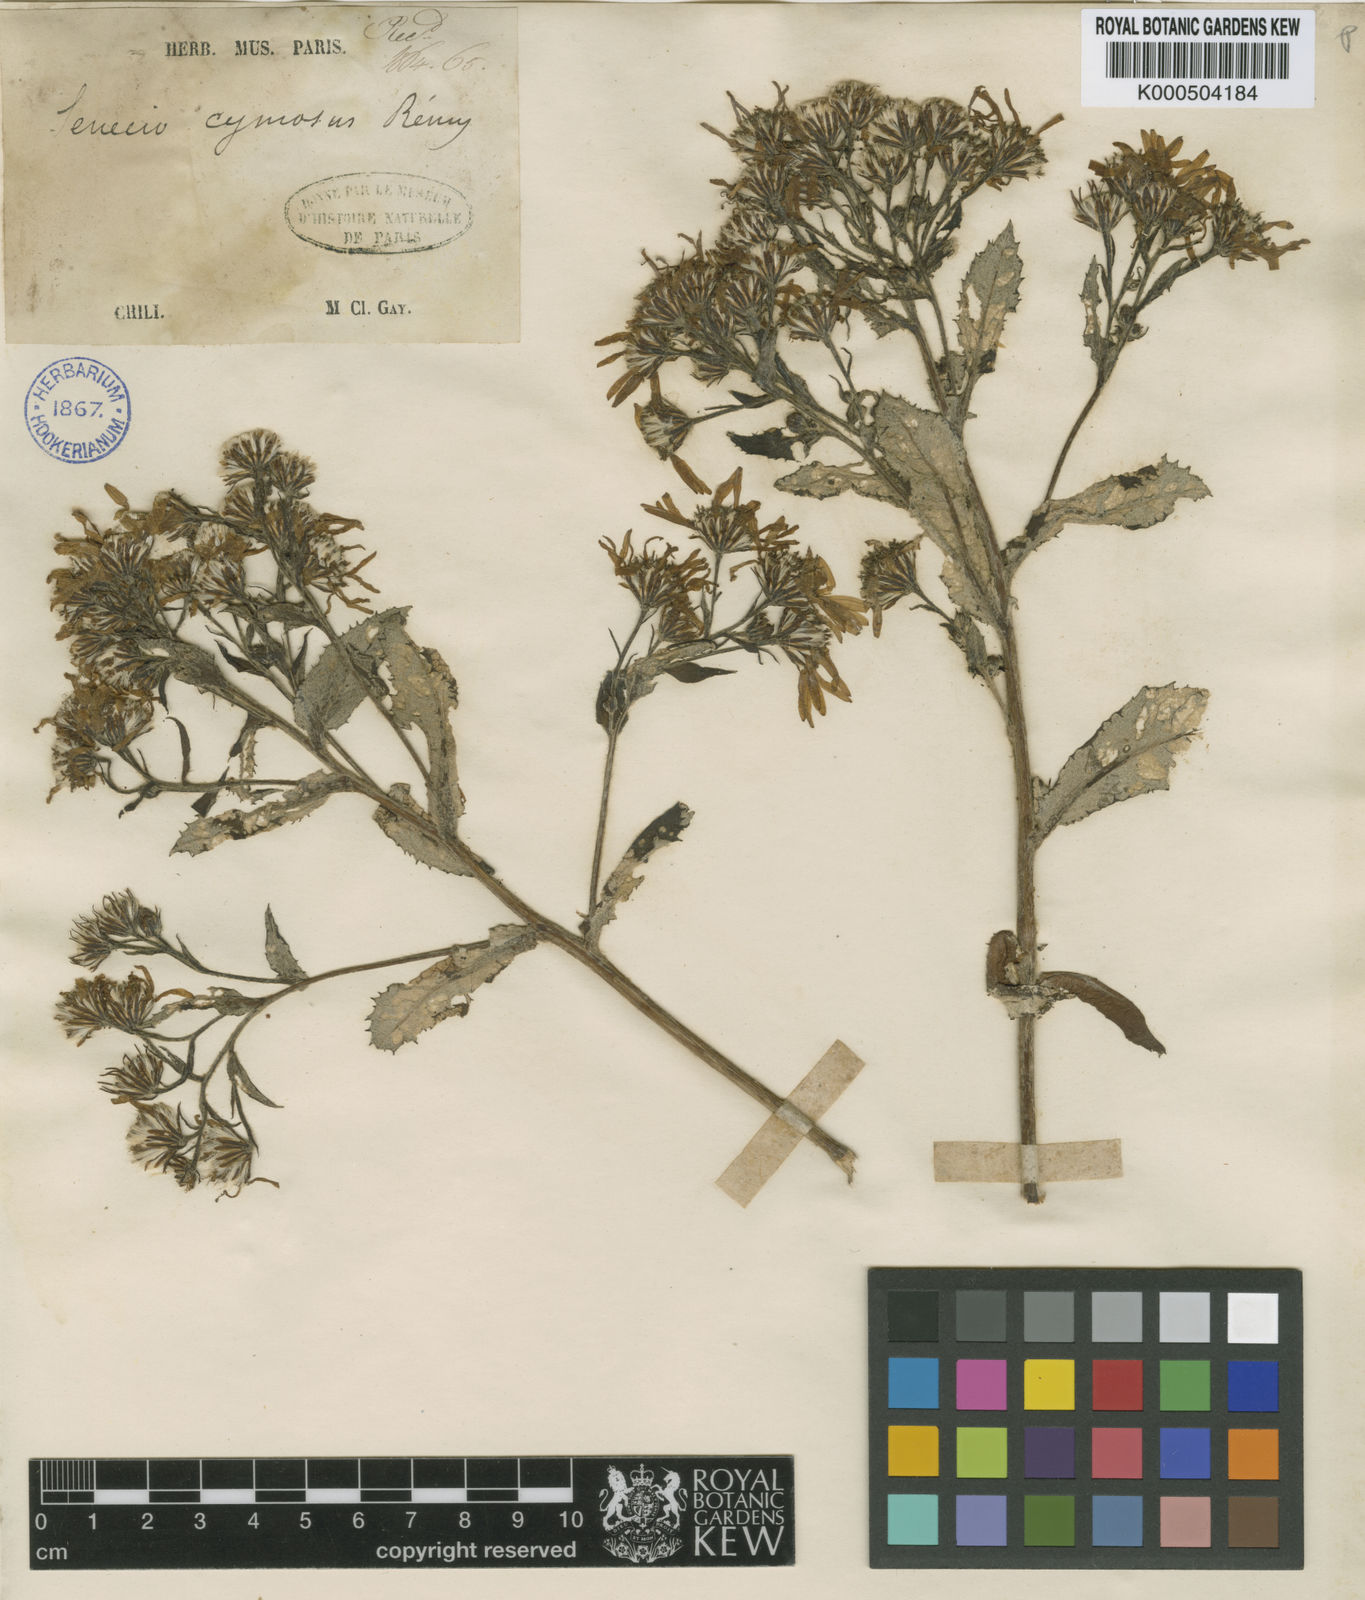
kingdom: Plantae
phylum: Tracheophyta
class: Magnoliopsida
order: Asterales
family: Asteraceae
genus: Acrisione
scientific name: Acrisione cymosa
